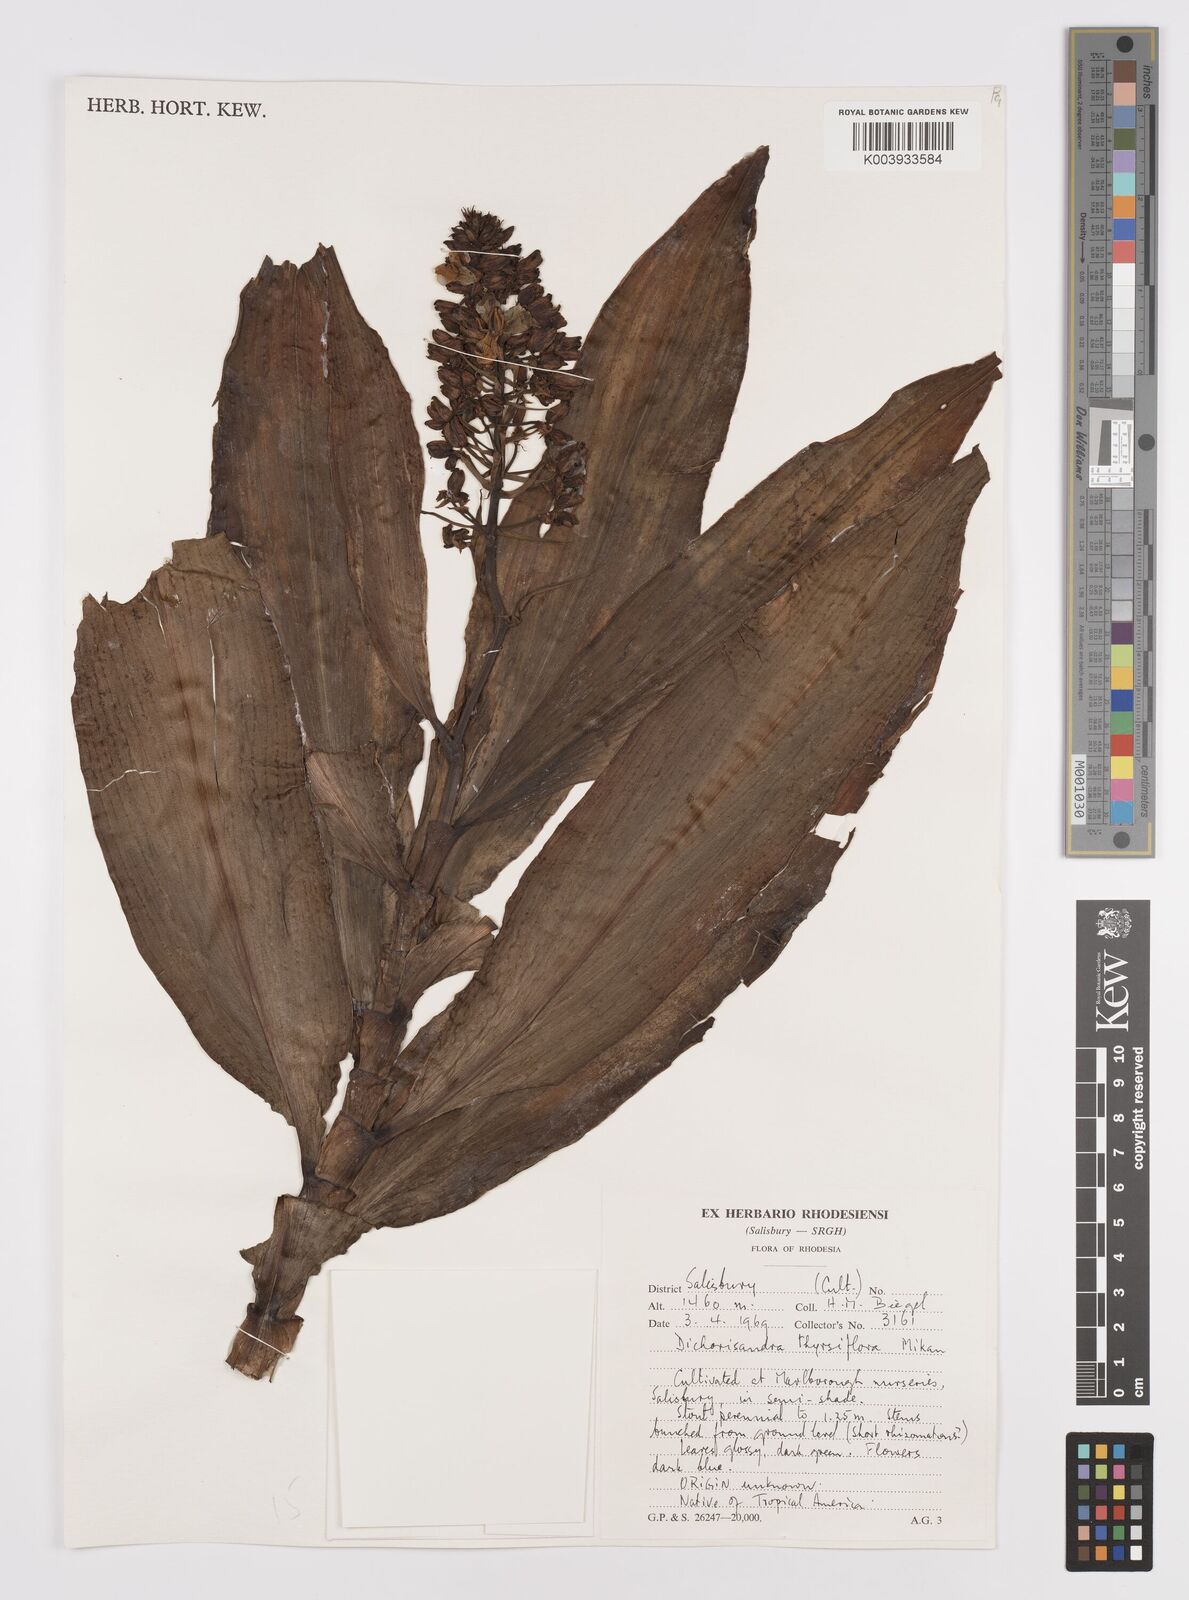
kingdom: Plantae
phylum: Tracheophyta
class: Liliopsida
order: Commelinales
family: Commelinaceae
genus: Dichorisandra
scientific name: Dichorisandra thyrsiflora
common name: Blue-ginger
